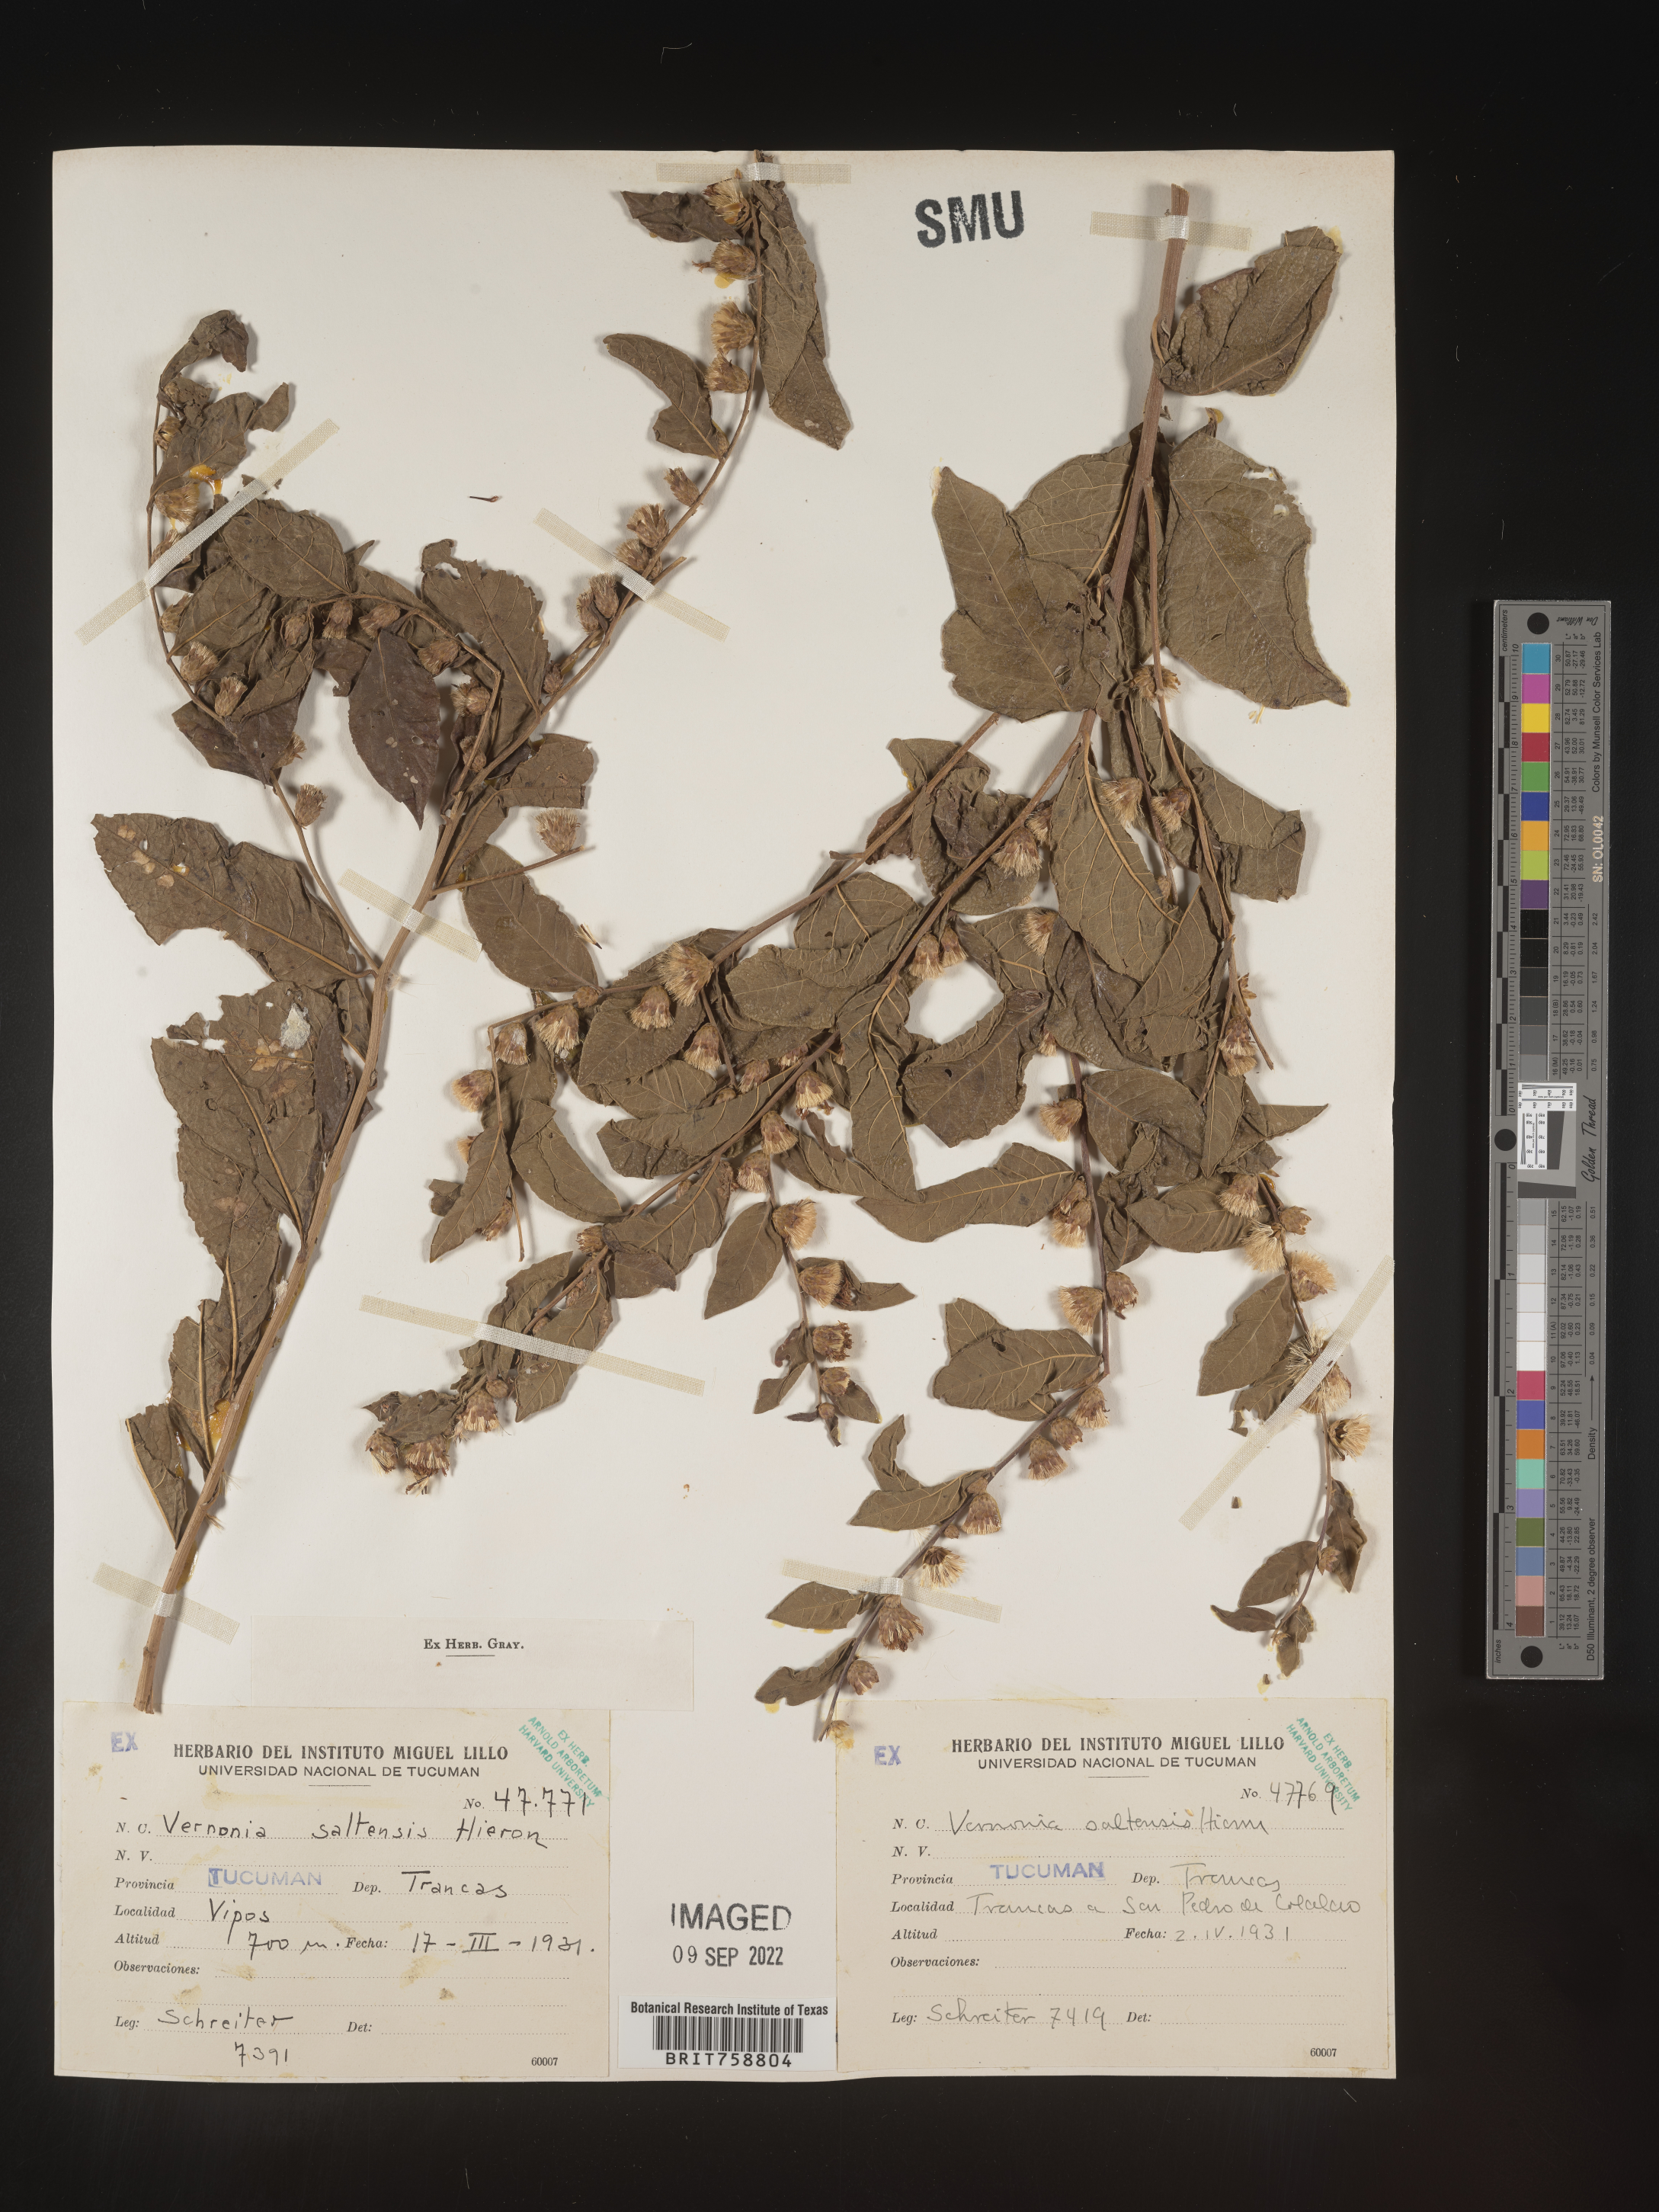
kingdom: Plantae
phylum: Tracheophyta
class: Magnoliopsida
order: Asterales
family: Asteraceae
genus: Vernonia
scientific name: Vernonia
